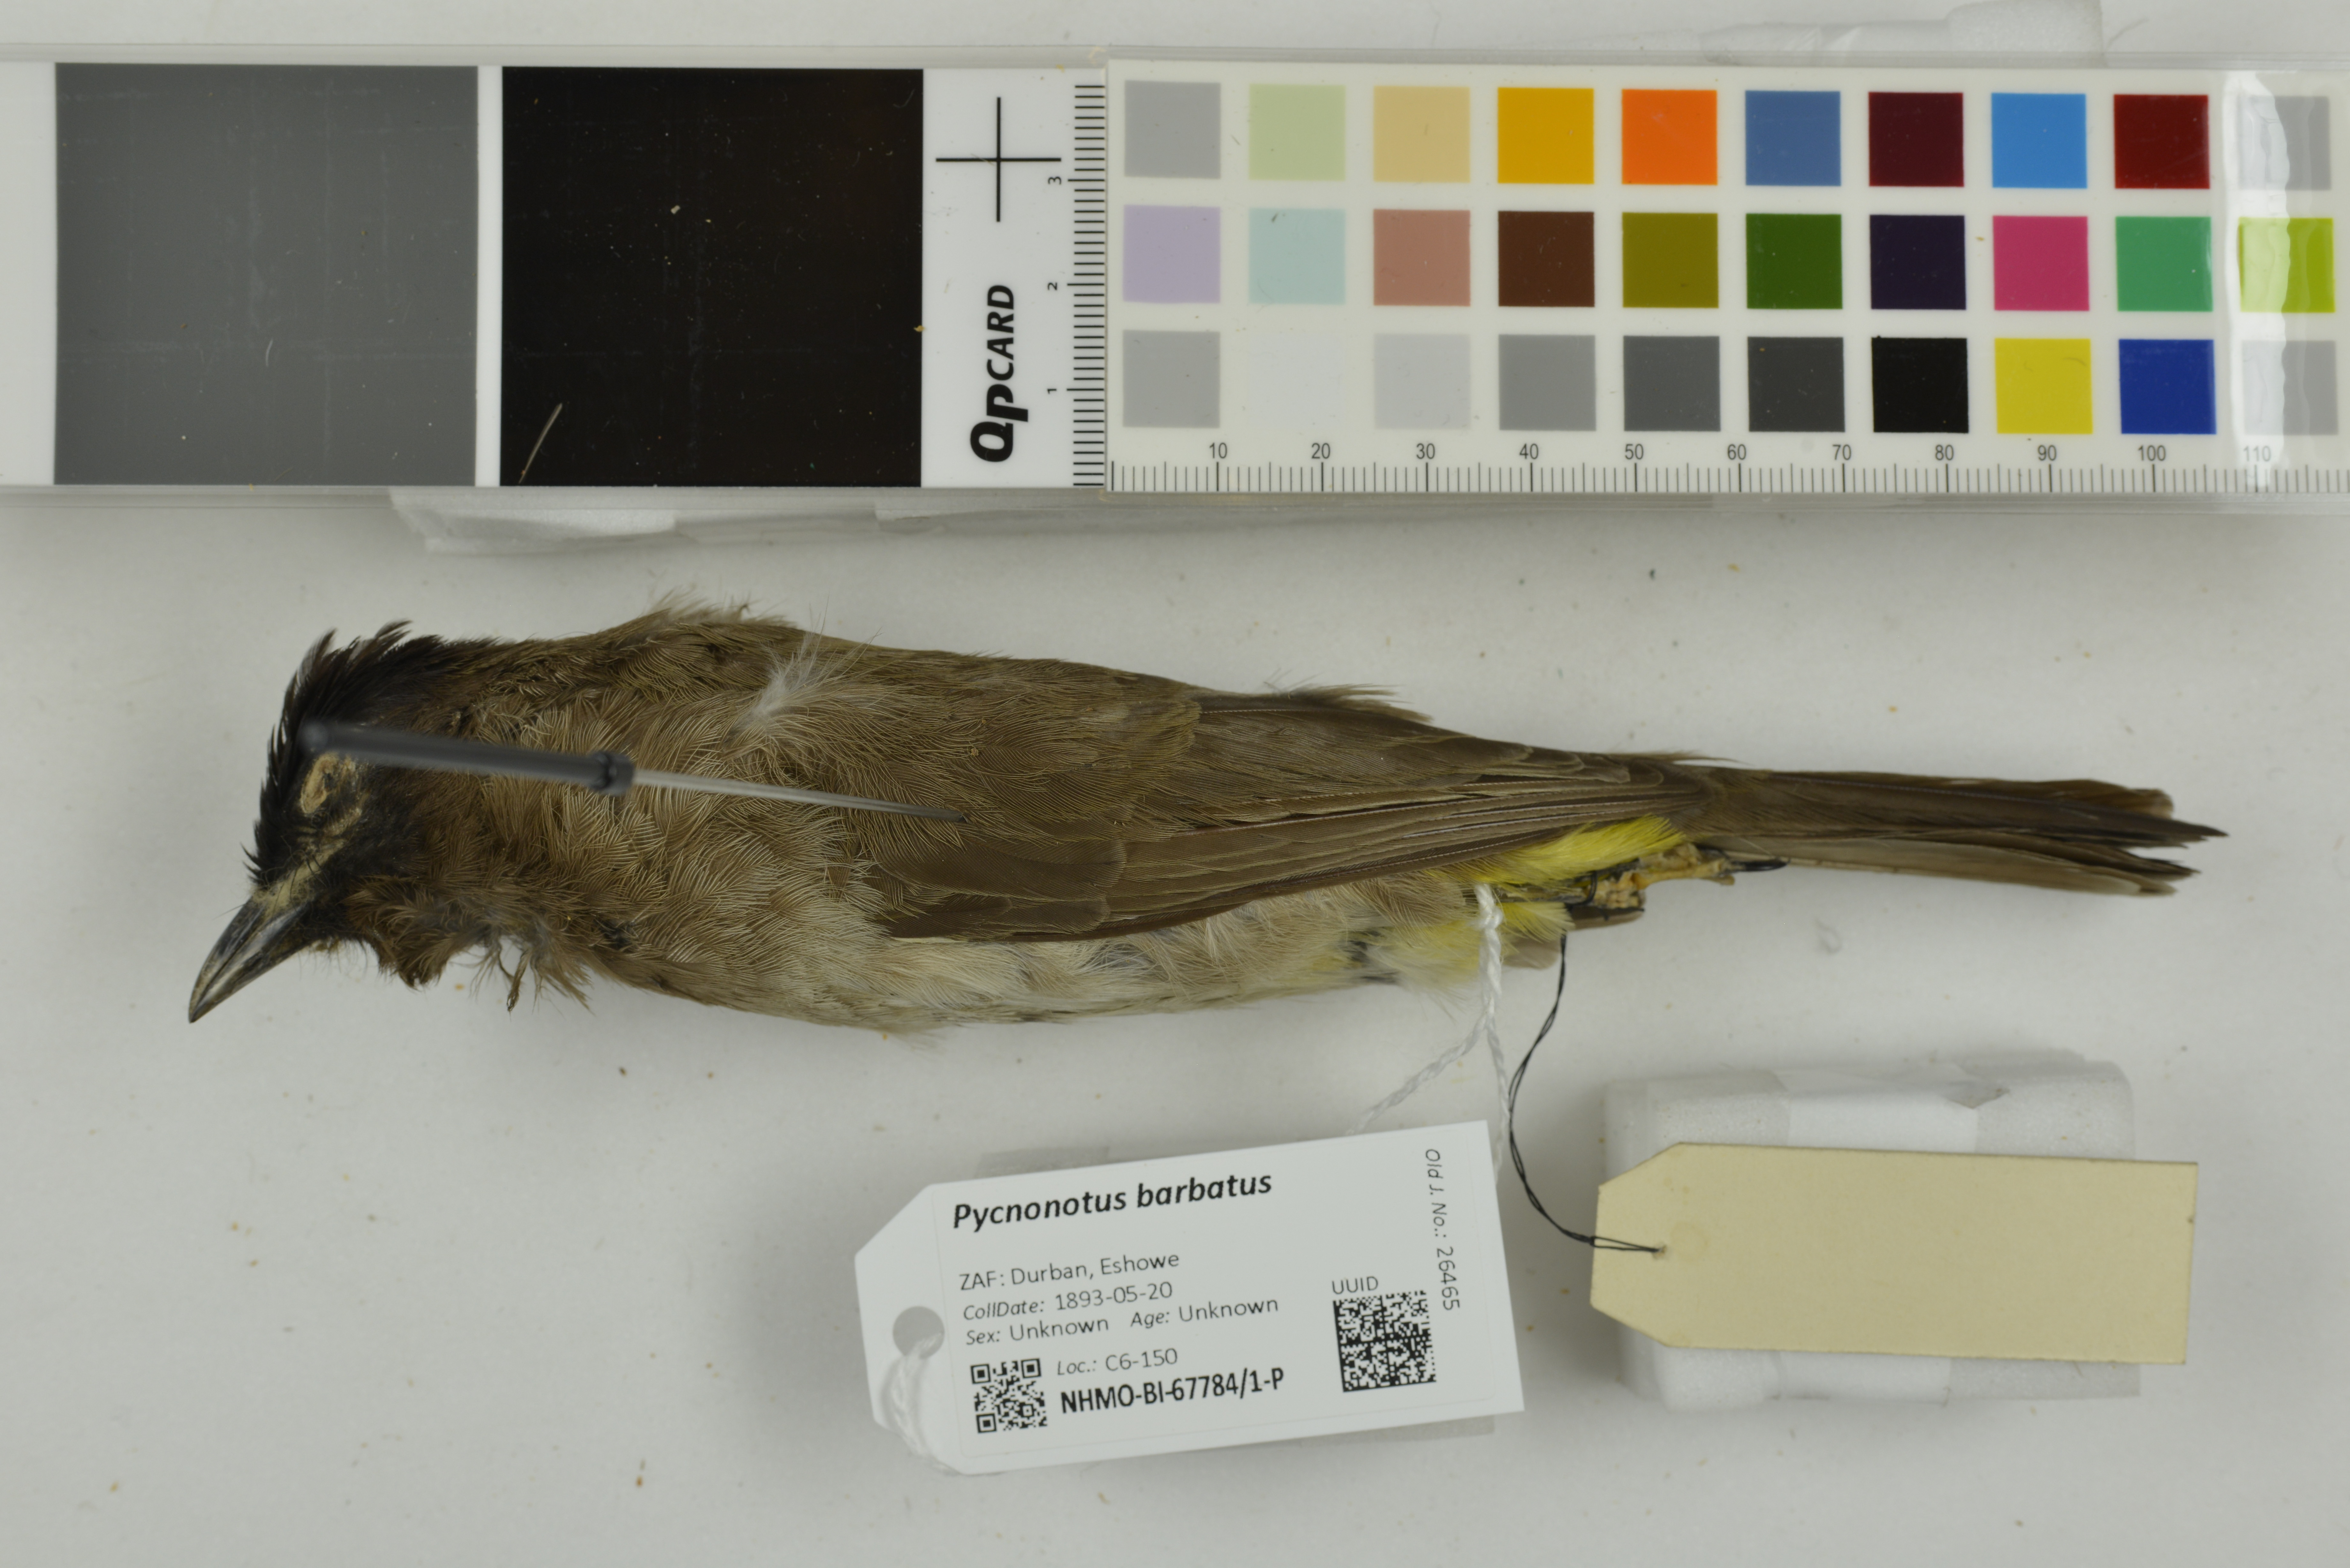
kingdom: Animalia
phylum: Chordata
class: Aves
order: Passeriformes
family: Pycnonotidae
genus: Pycnonotus
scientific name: Pycnonotus barbatus
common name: Common bulbul
